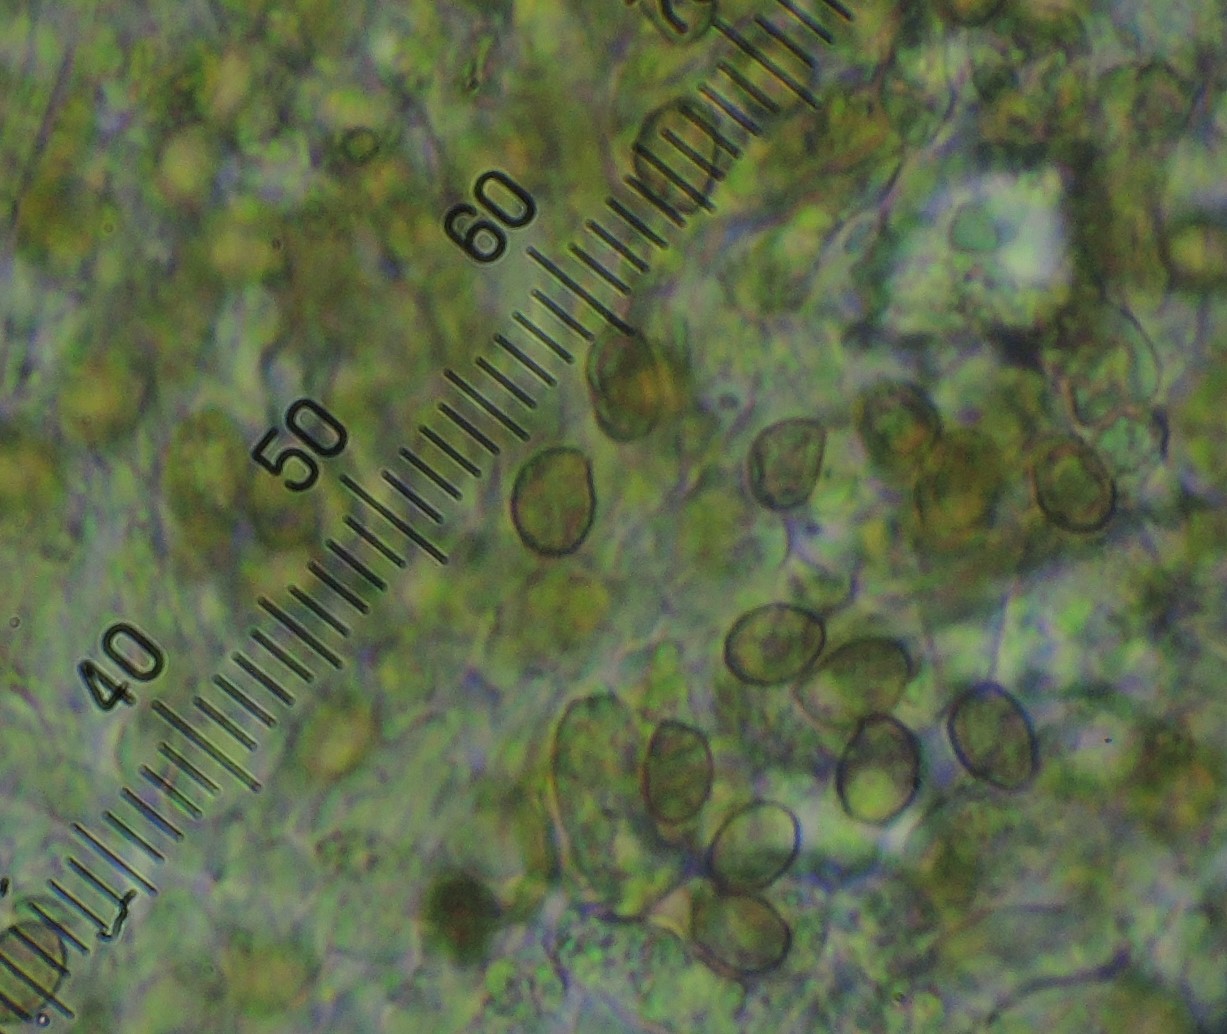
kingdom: Fungi
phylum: Basidiomycota
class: Agaricomycetes
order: Agaricales
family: Cortinariaceae
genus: Cortinarius
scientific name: Cortinarius alboadustus
